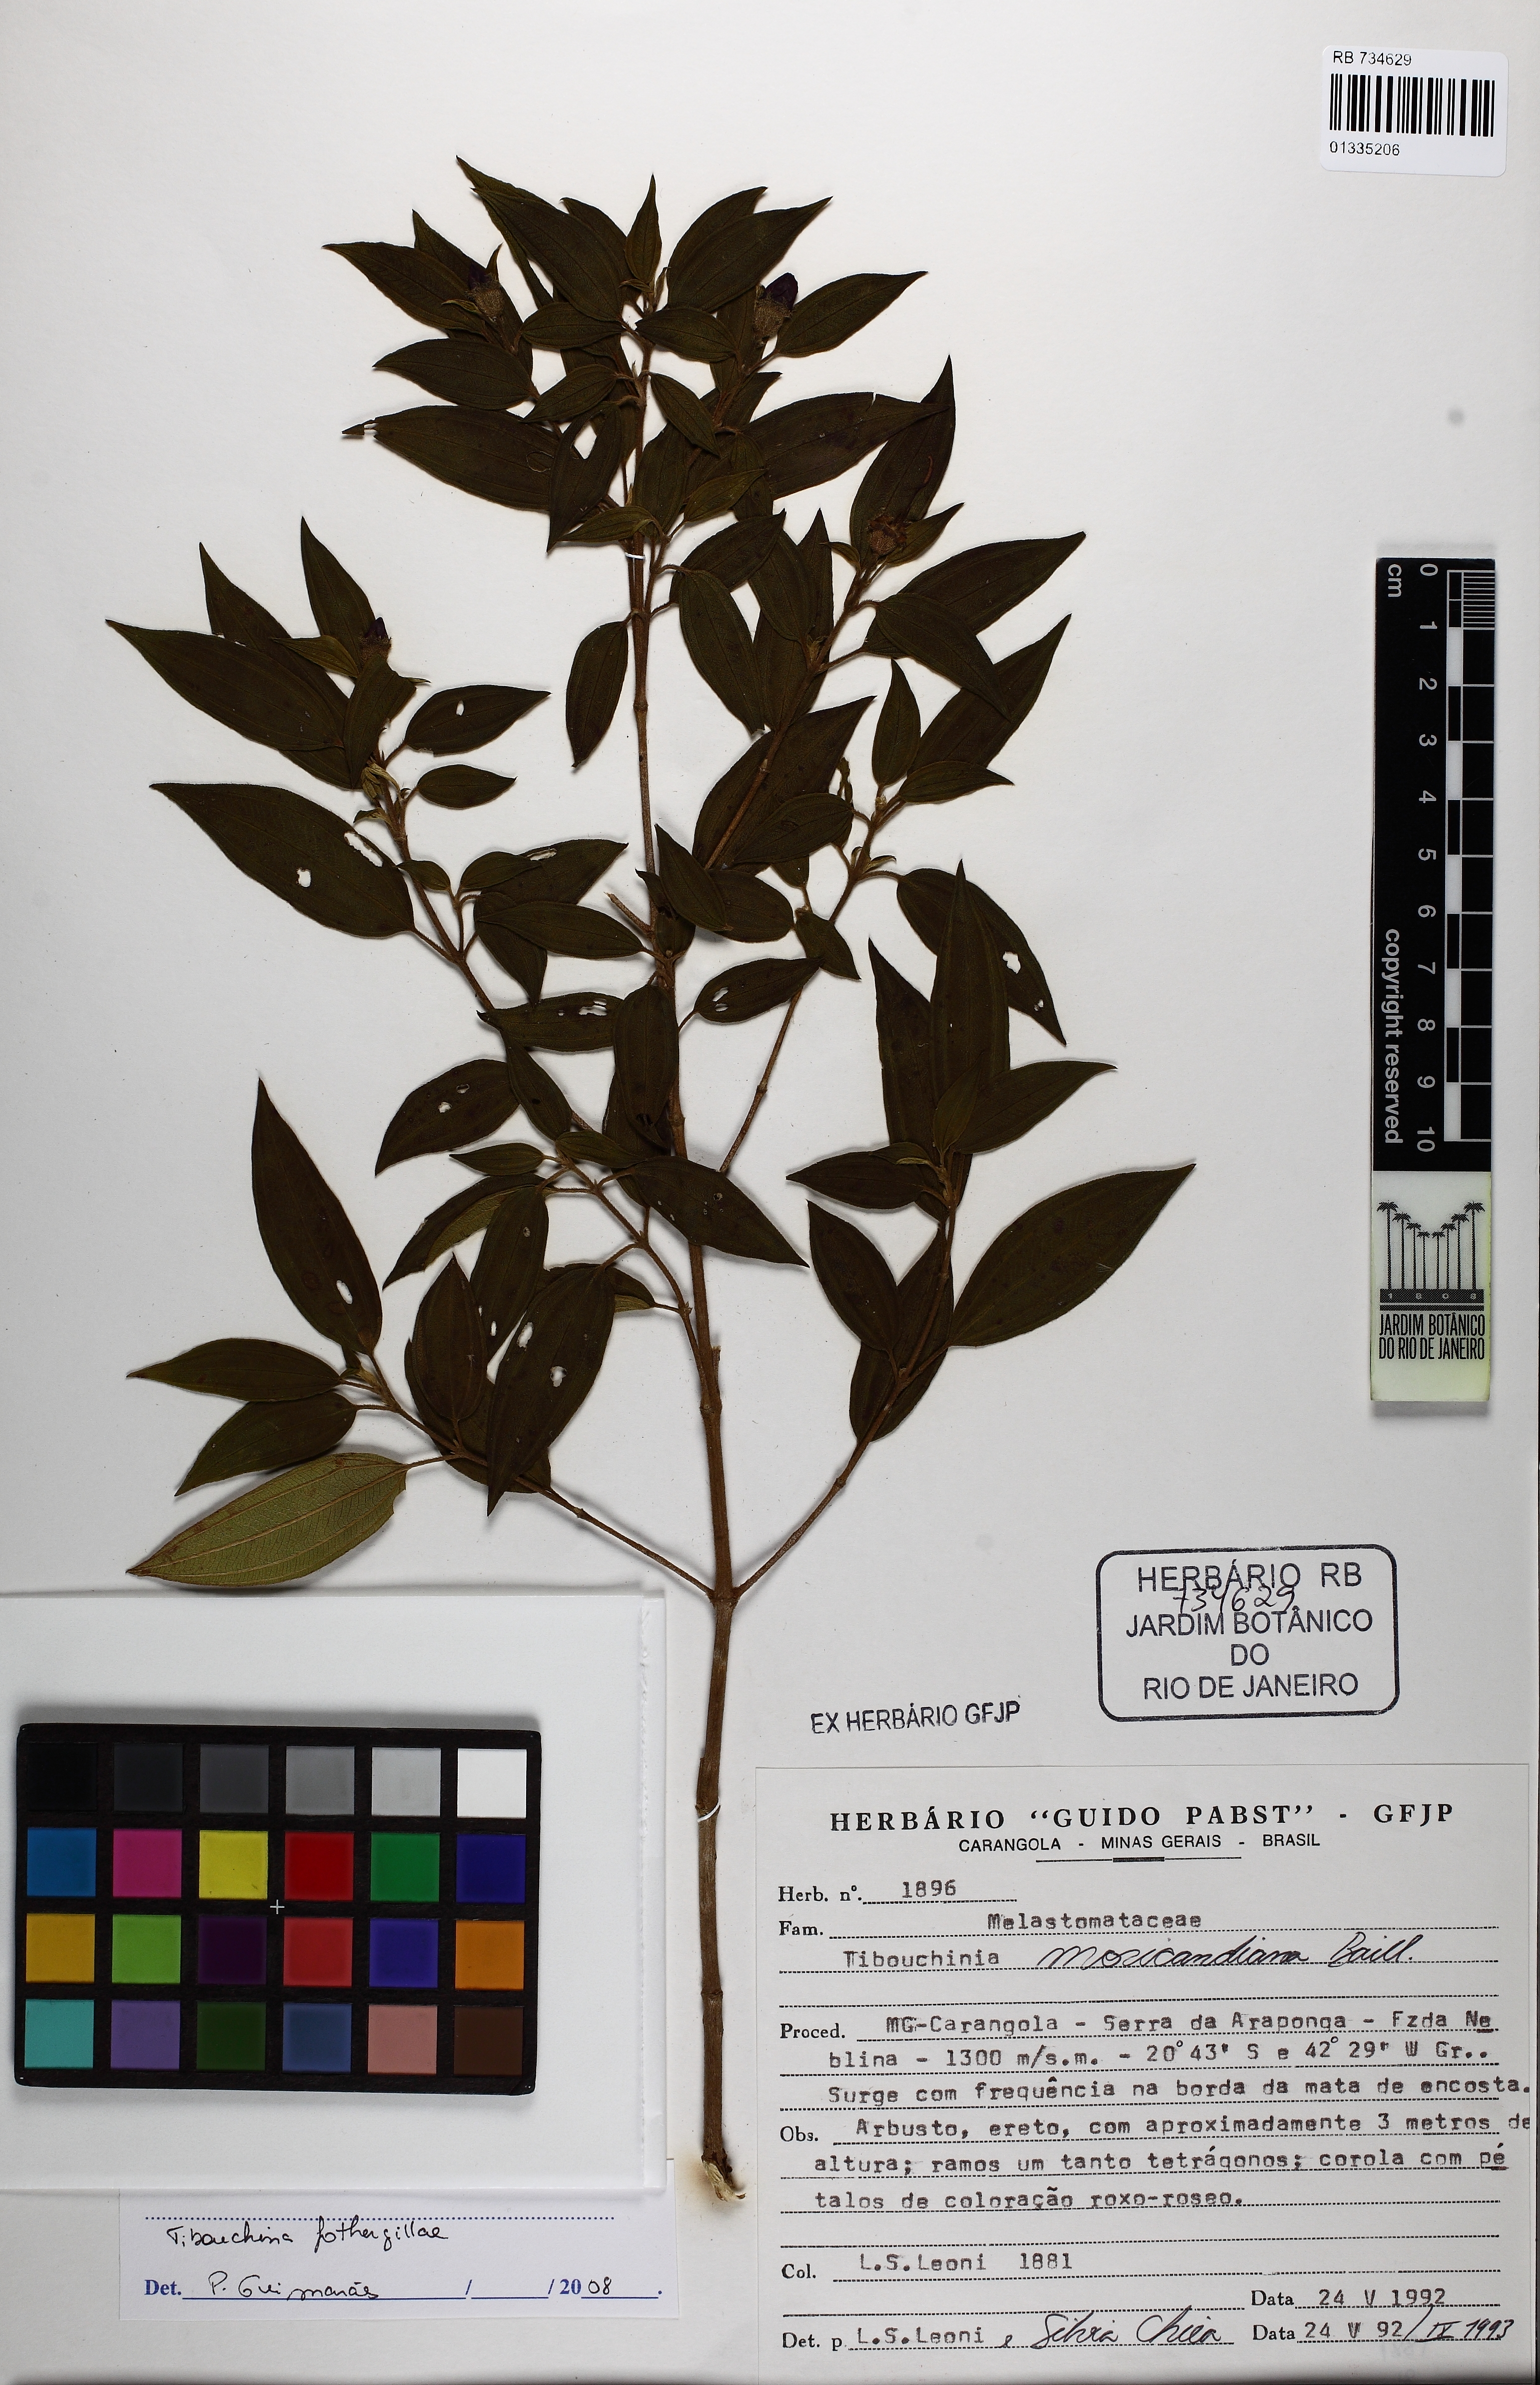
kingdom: Plantae
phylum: Tracheophyta
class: Magnoliopsida
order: Myrtales
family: Melastomataceae
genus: Pleroma
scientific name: Pleroma fothergillae
